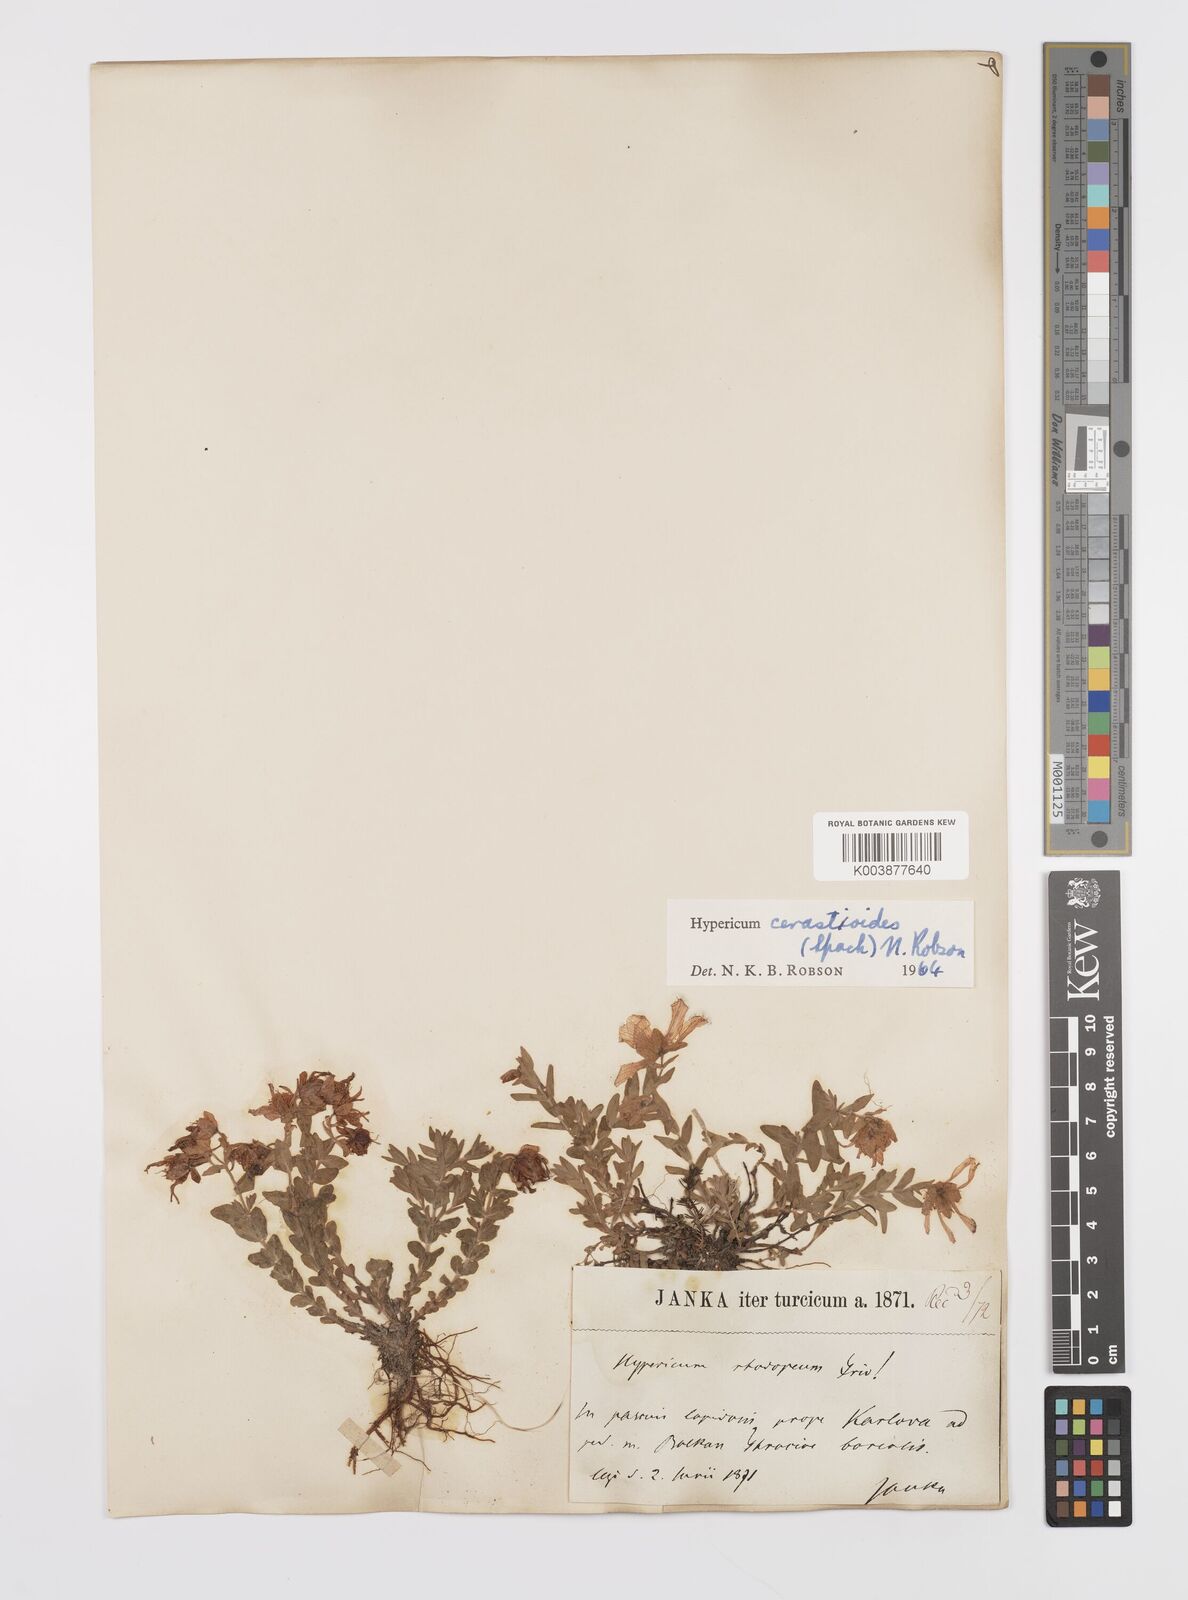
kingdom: Plantae
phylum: Tracheophyta
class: Magnoliopsida
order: Malpighiales
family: Hypericaceae
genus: Hypericum
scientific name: Hypericum cerastoides
